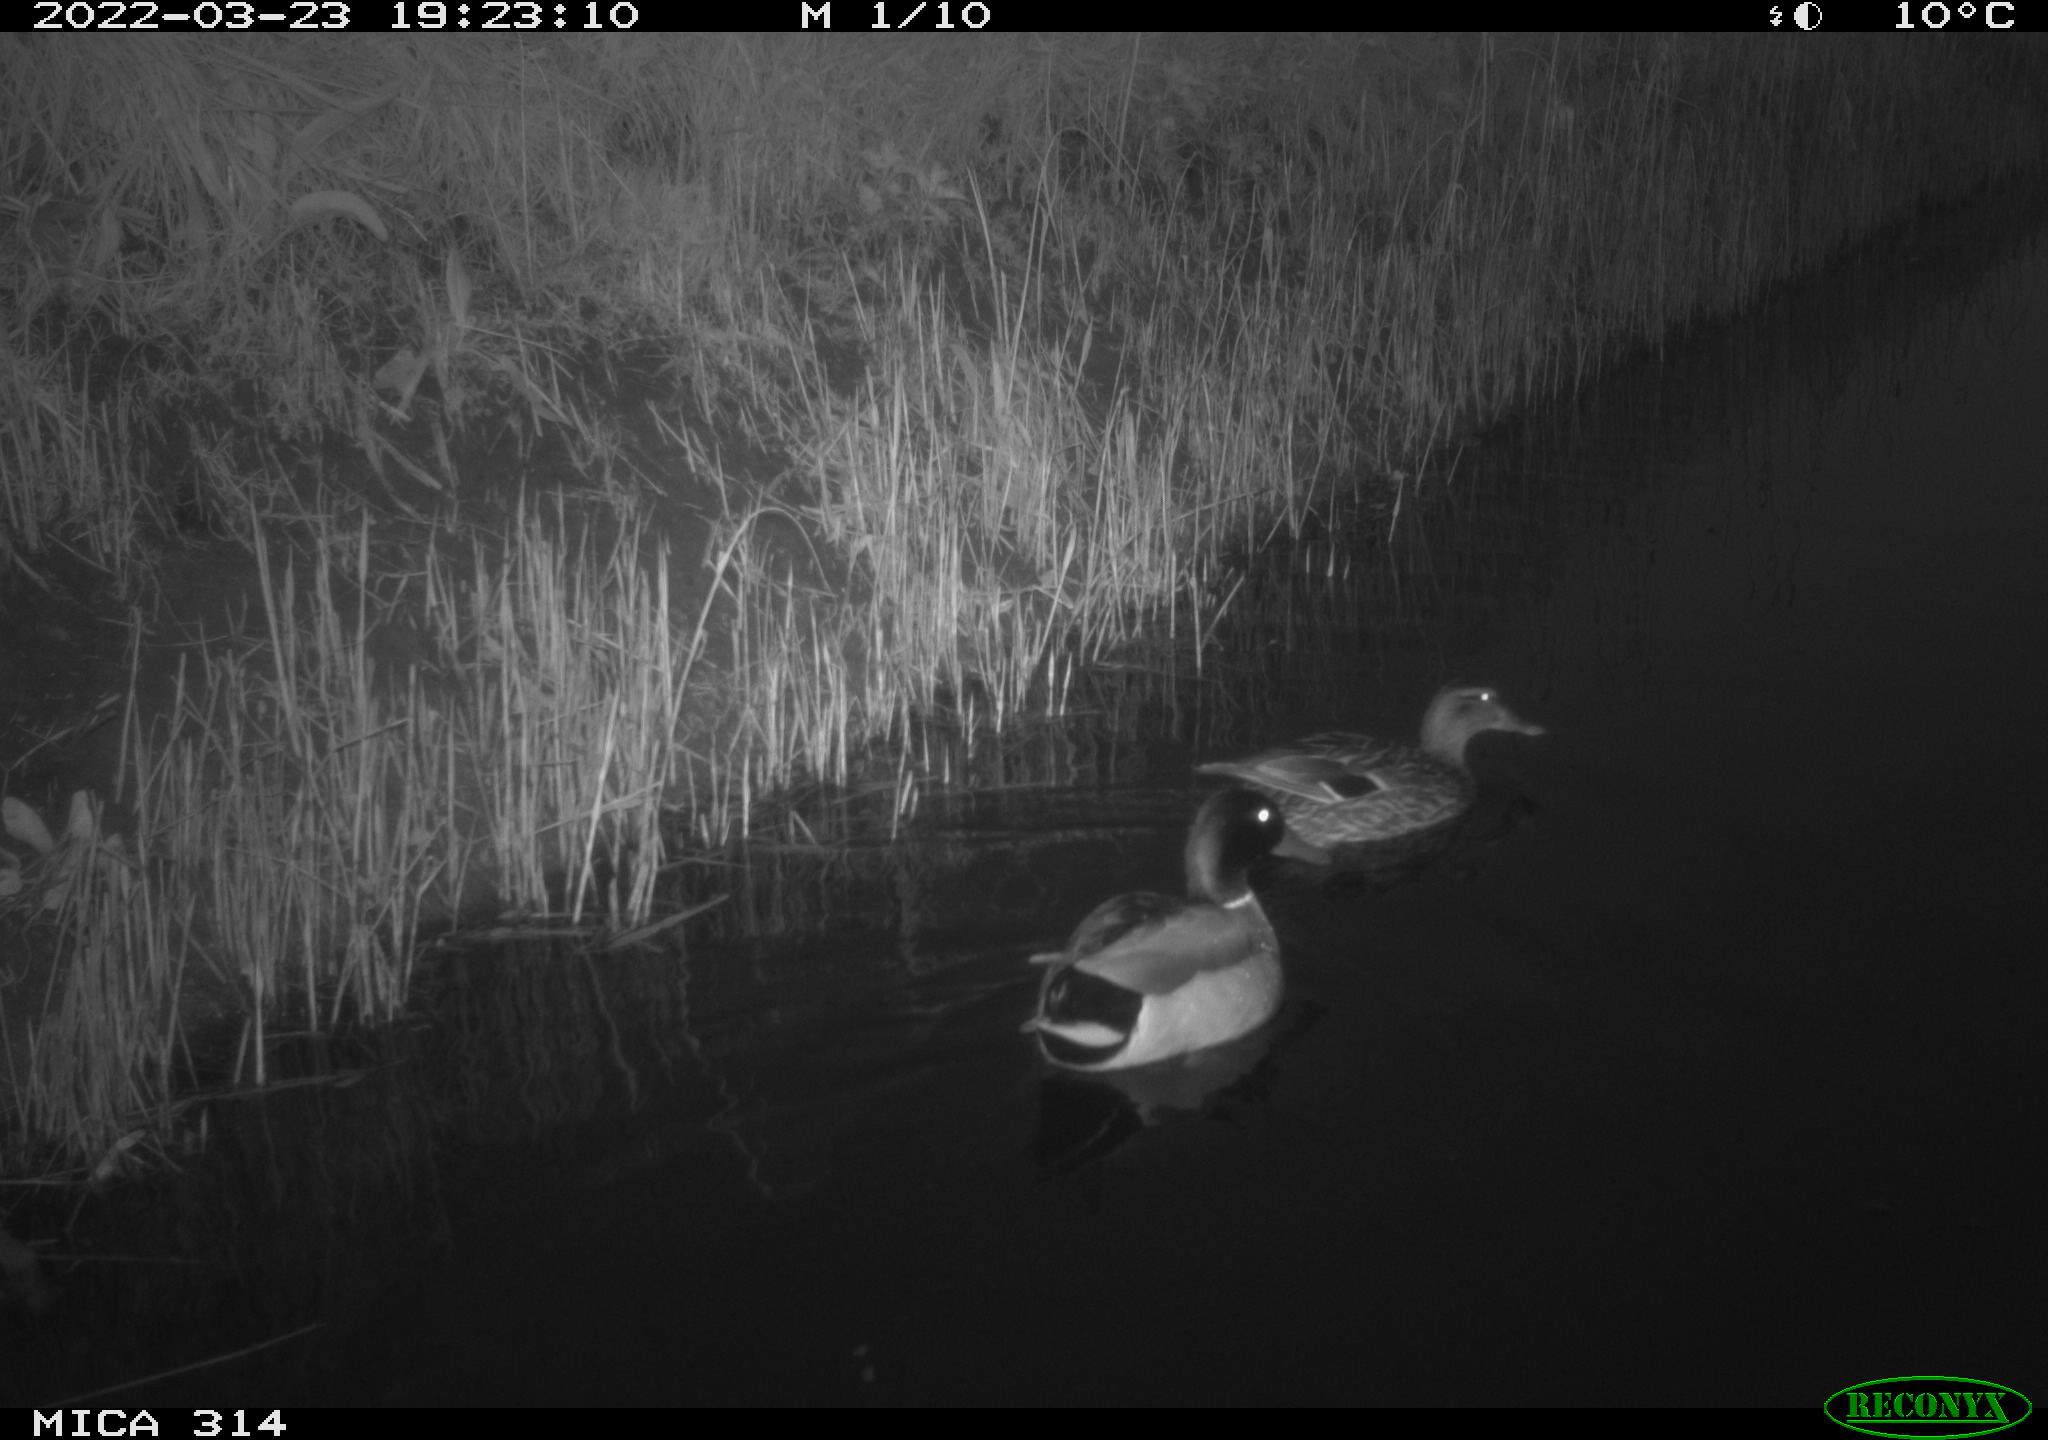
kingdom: Animalia
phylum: Chordata
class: Aves
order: Anseriformes
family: Anatidae
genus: Anas
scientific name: Anas platyrhynchos
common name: Mallard
